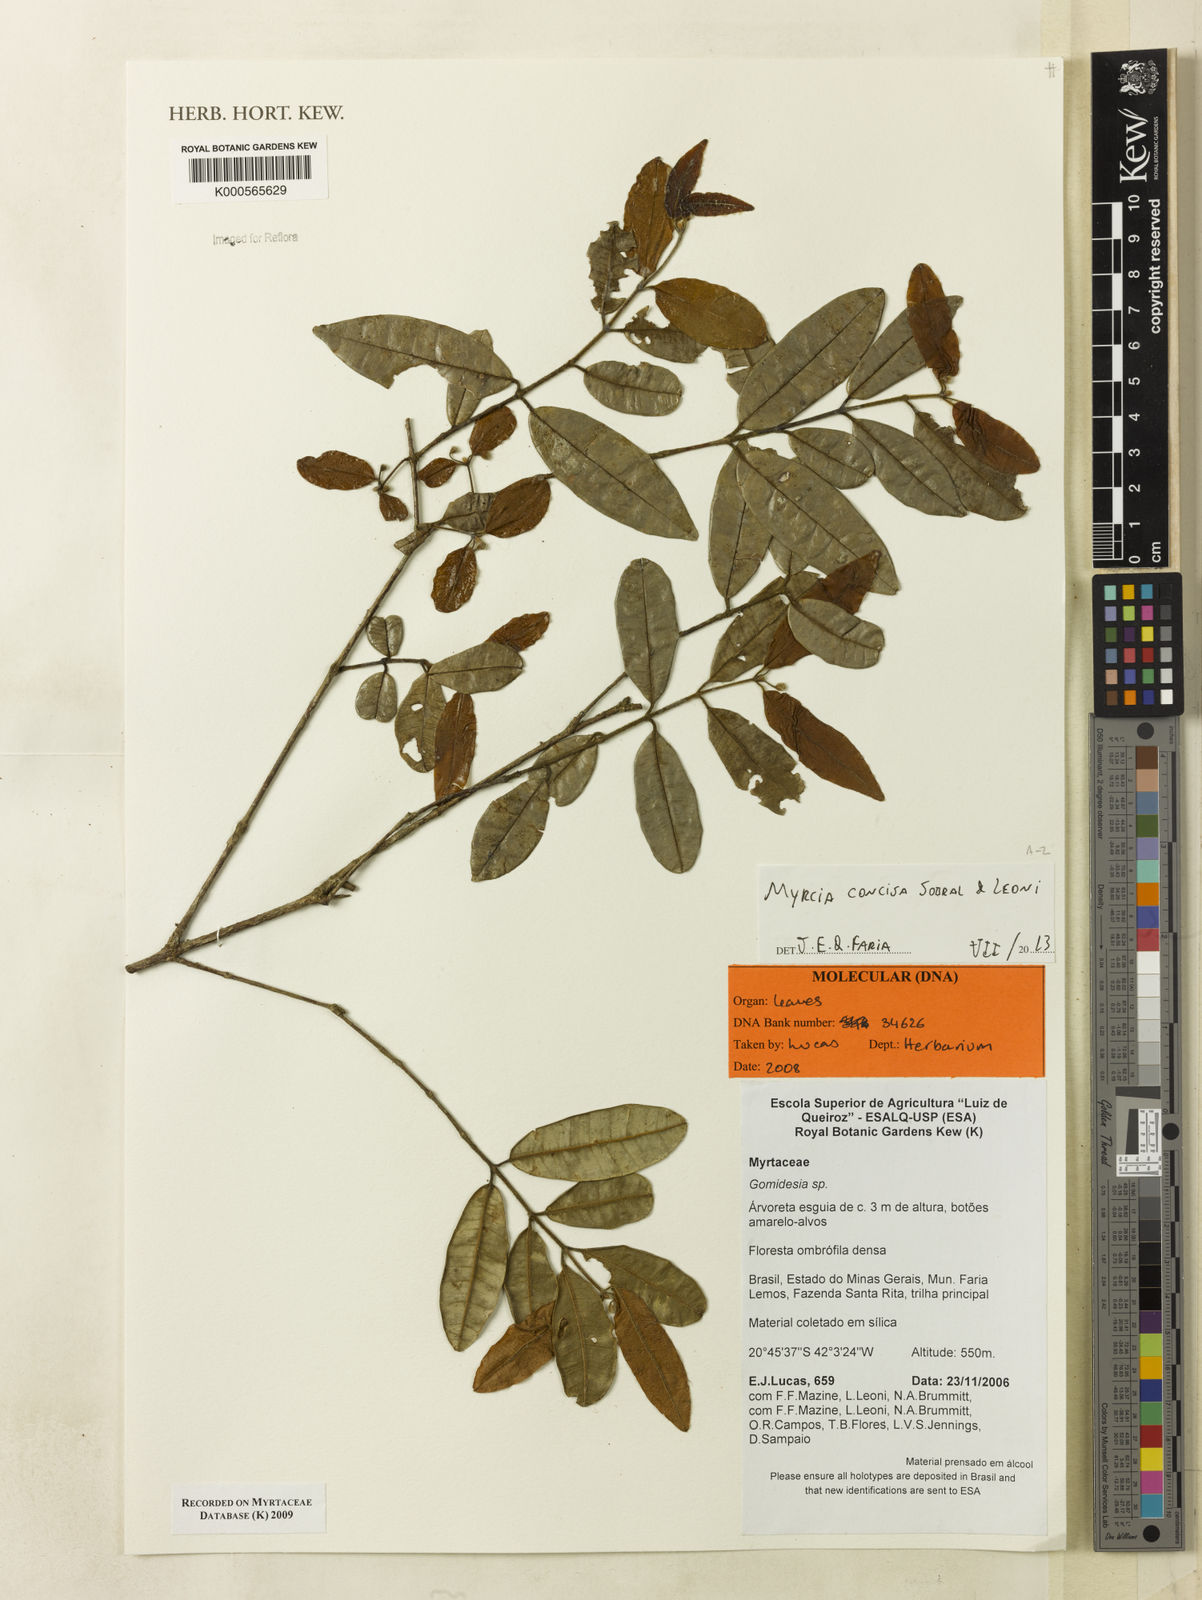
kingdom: Plantae
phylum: Tracheophyta
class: Magnoliopsida
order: Myrtales
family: Myrtaceae
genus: Myrcia
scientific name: Myrcia concisa
